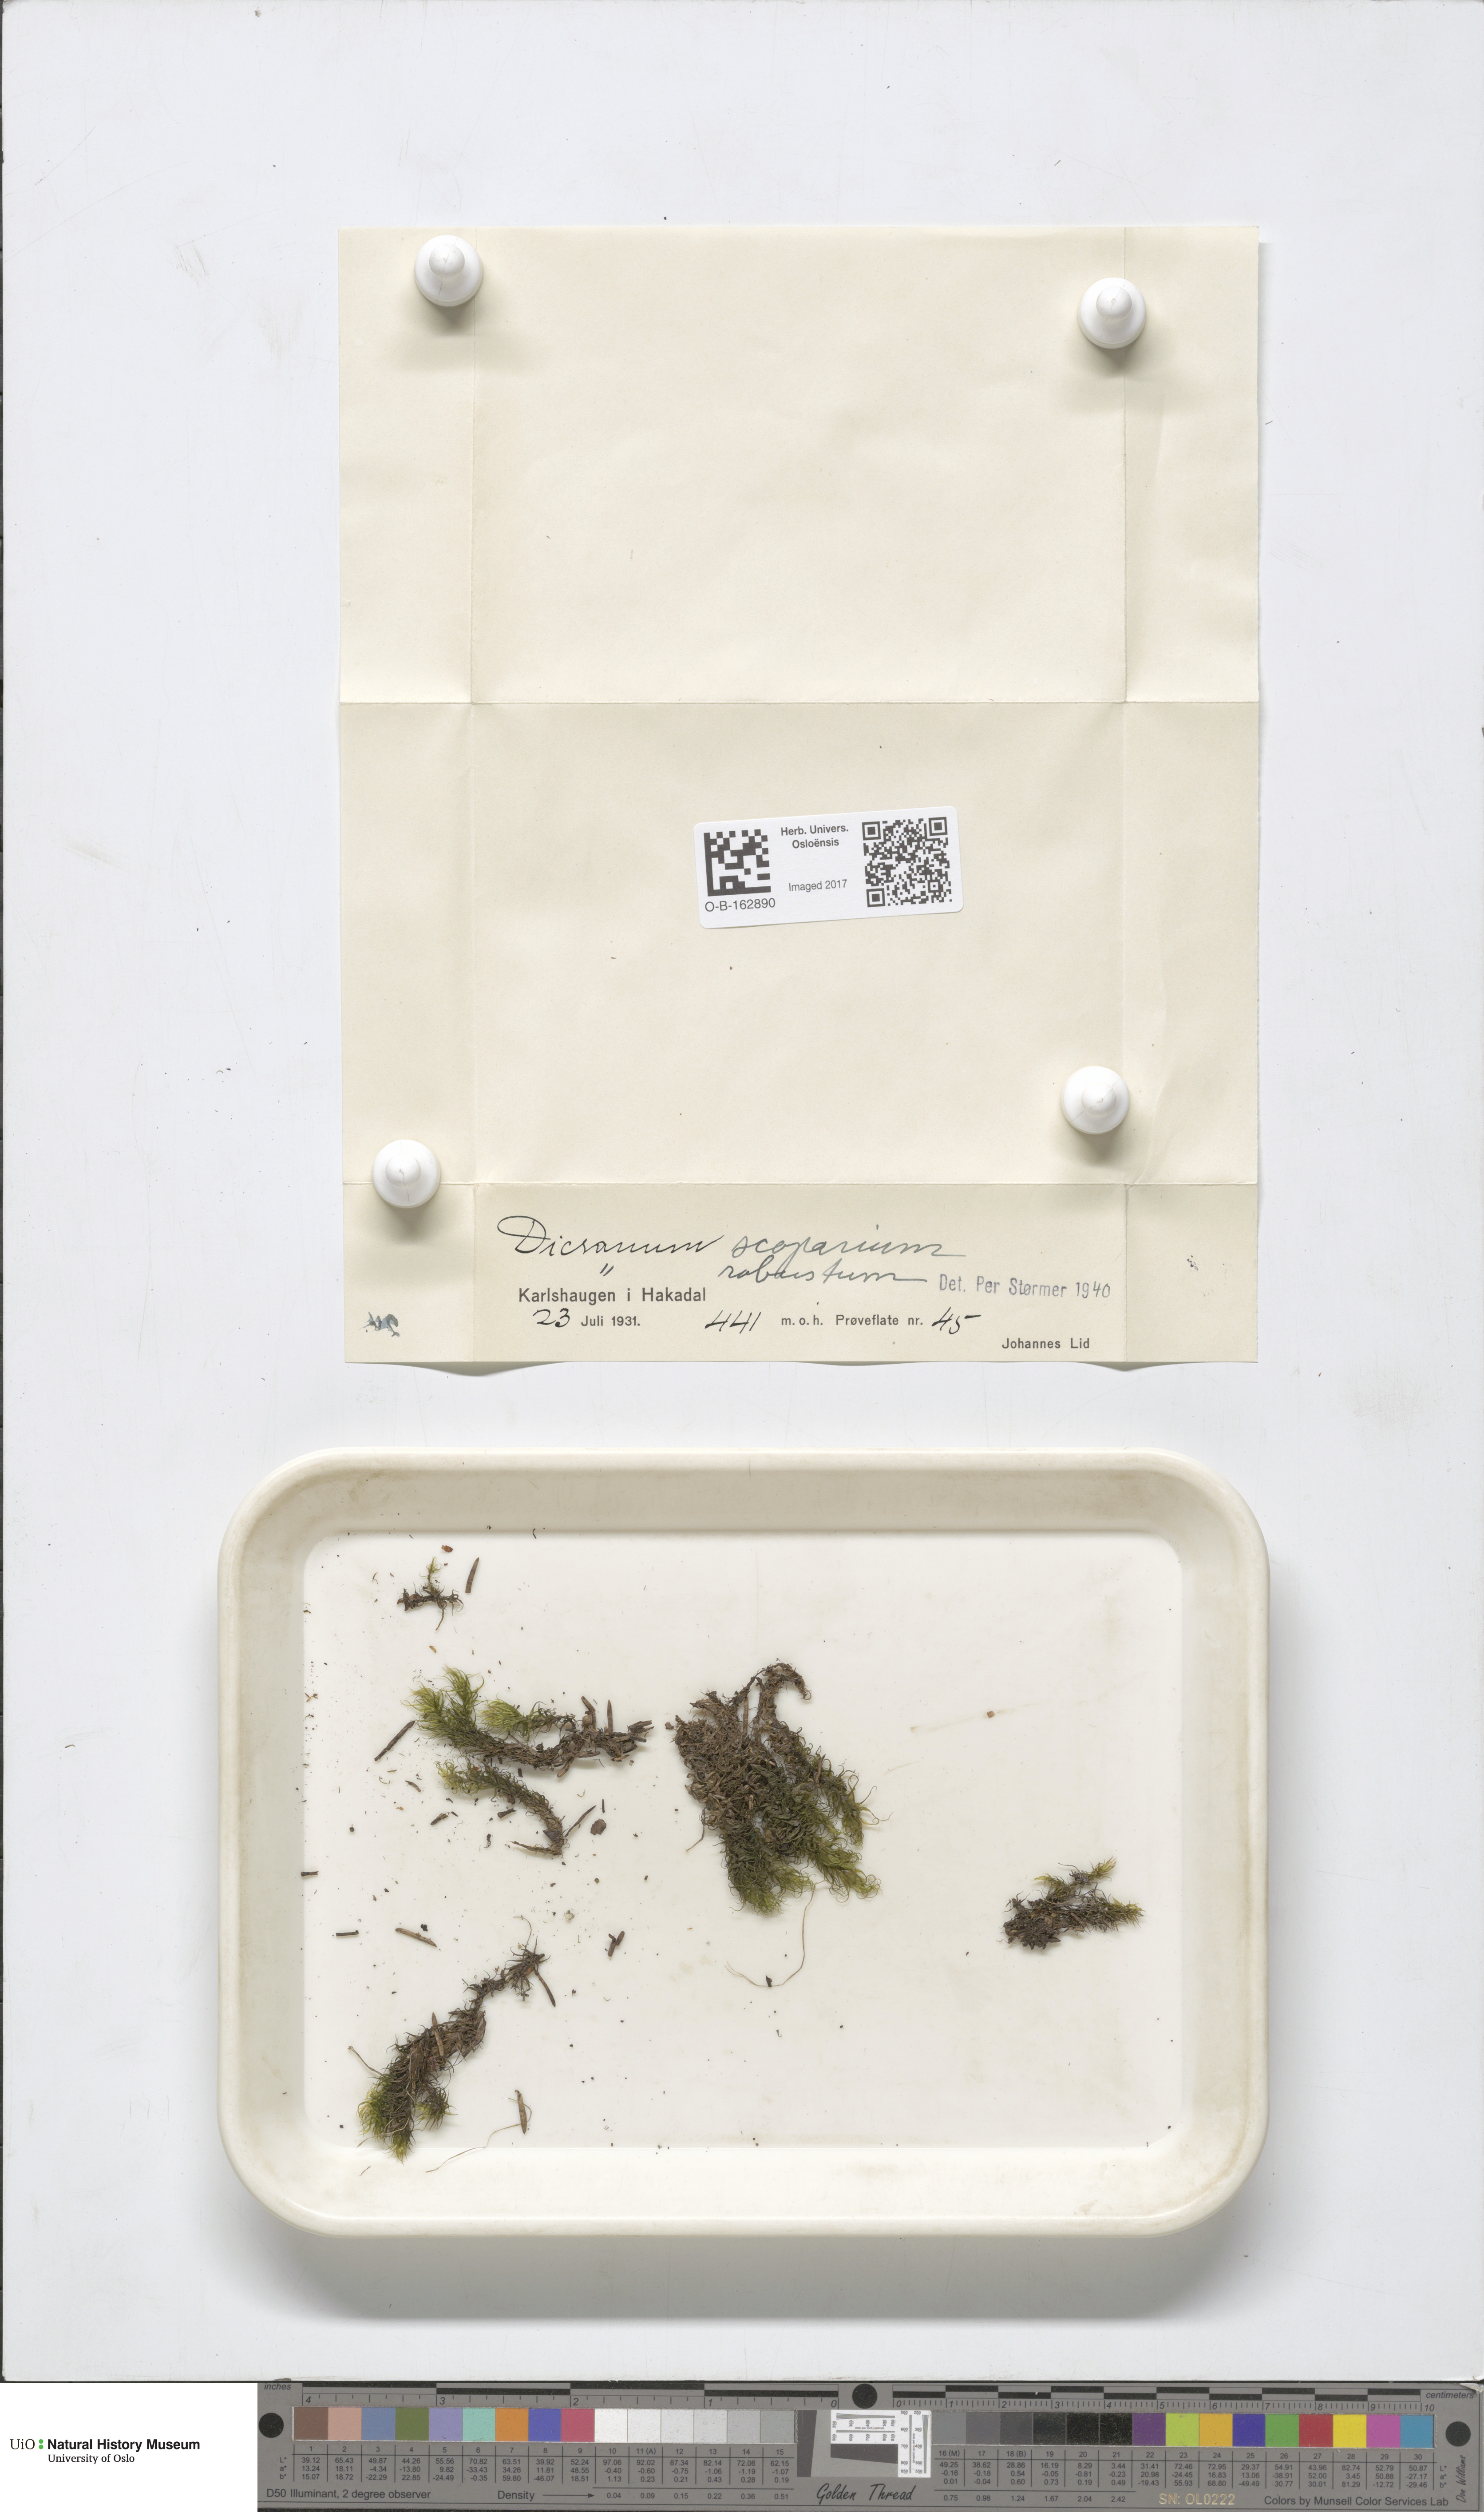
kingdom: Plantae
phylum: Bryophyta
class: Bryopsida
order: Dicranales
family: Dicranaceae
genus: Dicranum
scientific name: Dicranum scoparium
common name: Broom fork-moss
